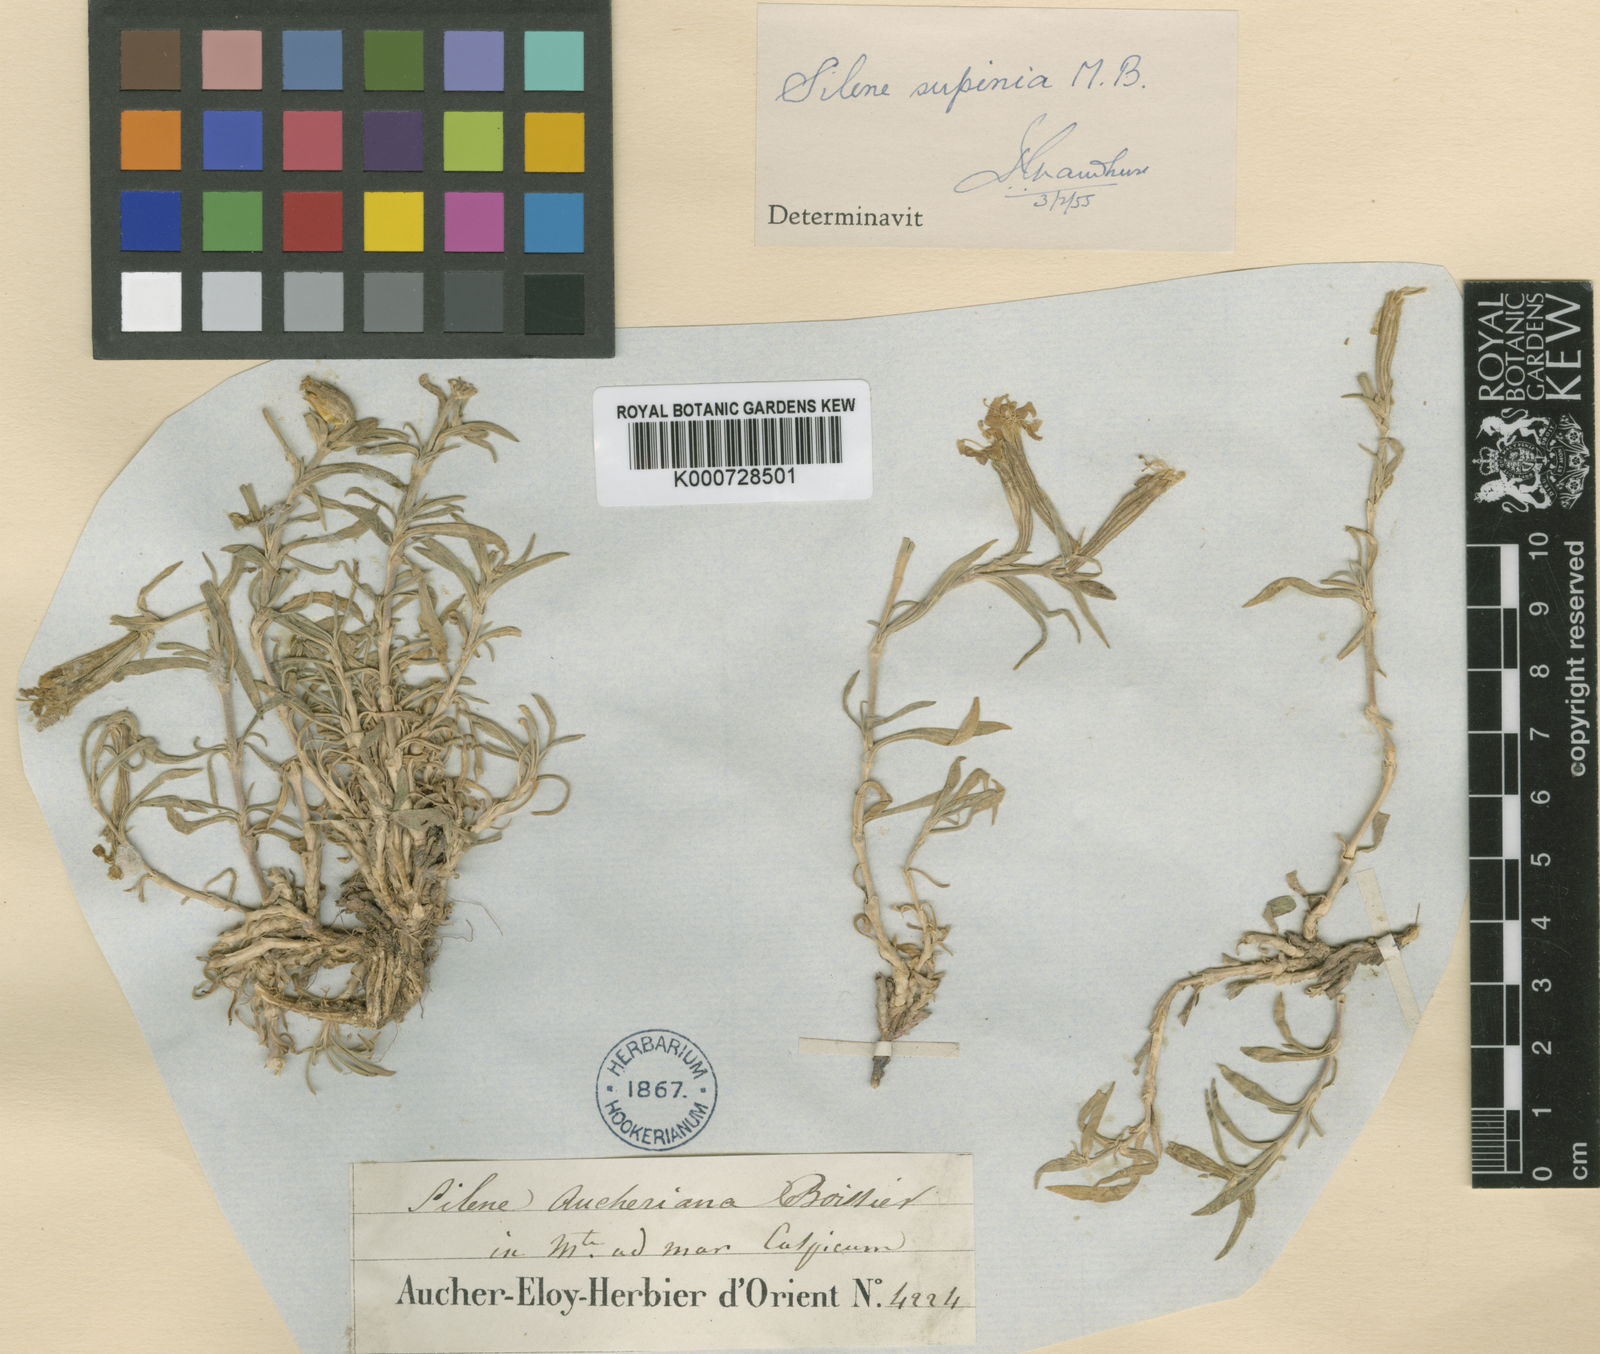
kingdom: Plantae
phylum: Tracheophyta
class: Magnoliopsida
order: Caryophyllales
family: Caryophyllaceae
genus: Silene
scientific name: Silene supina
